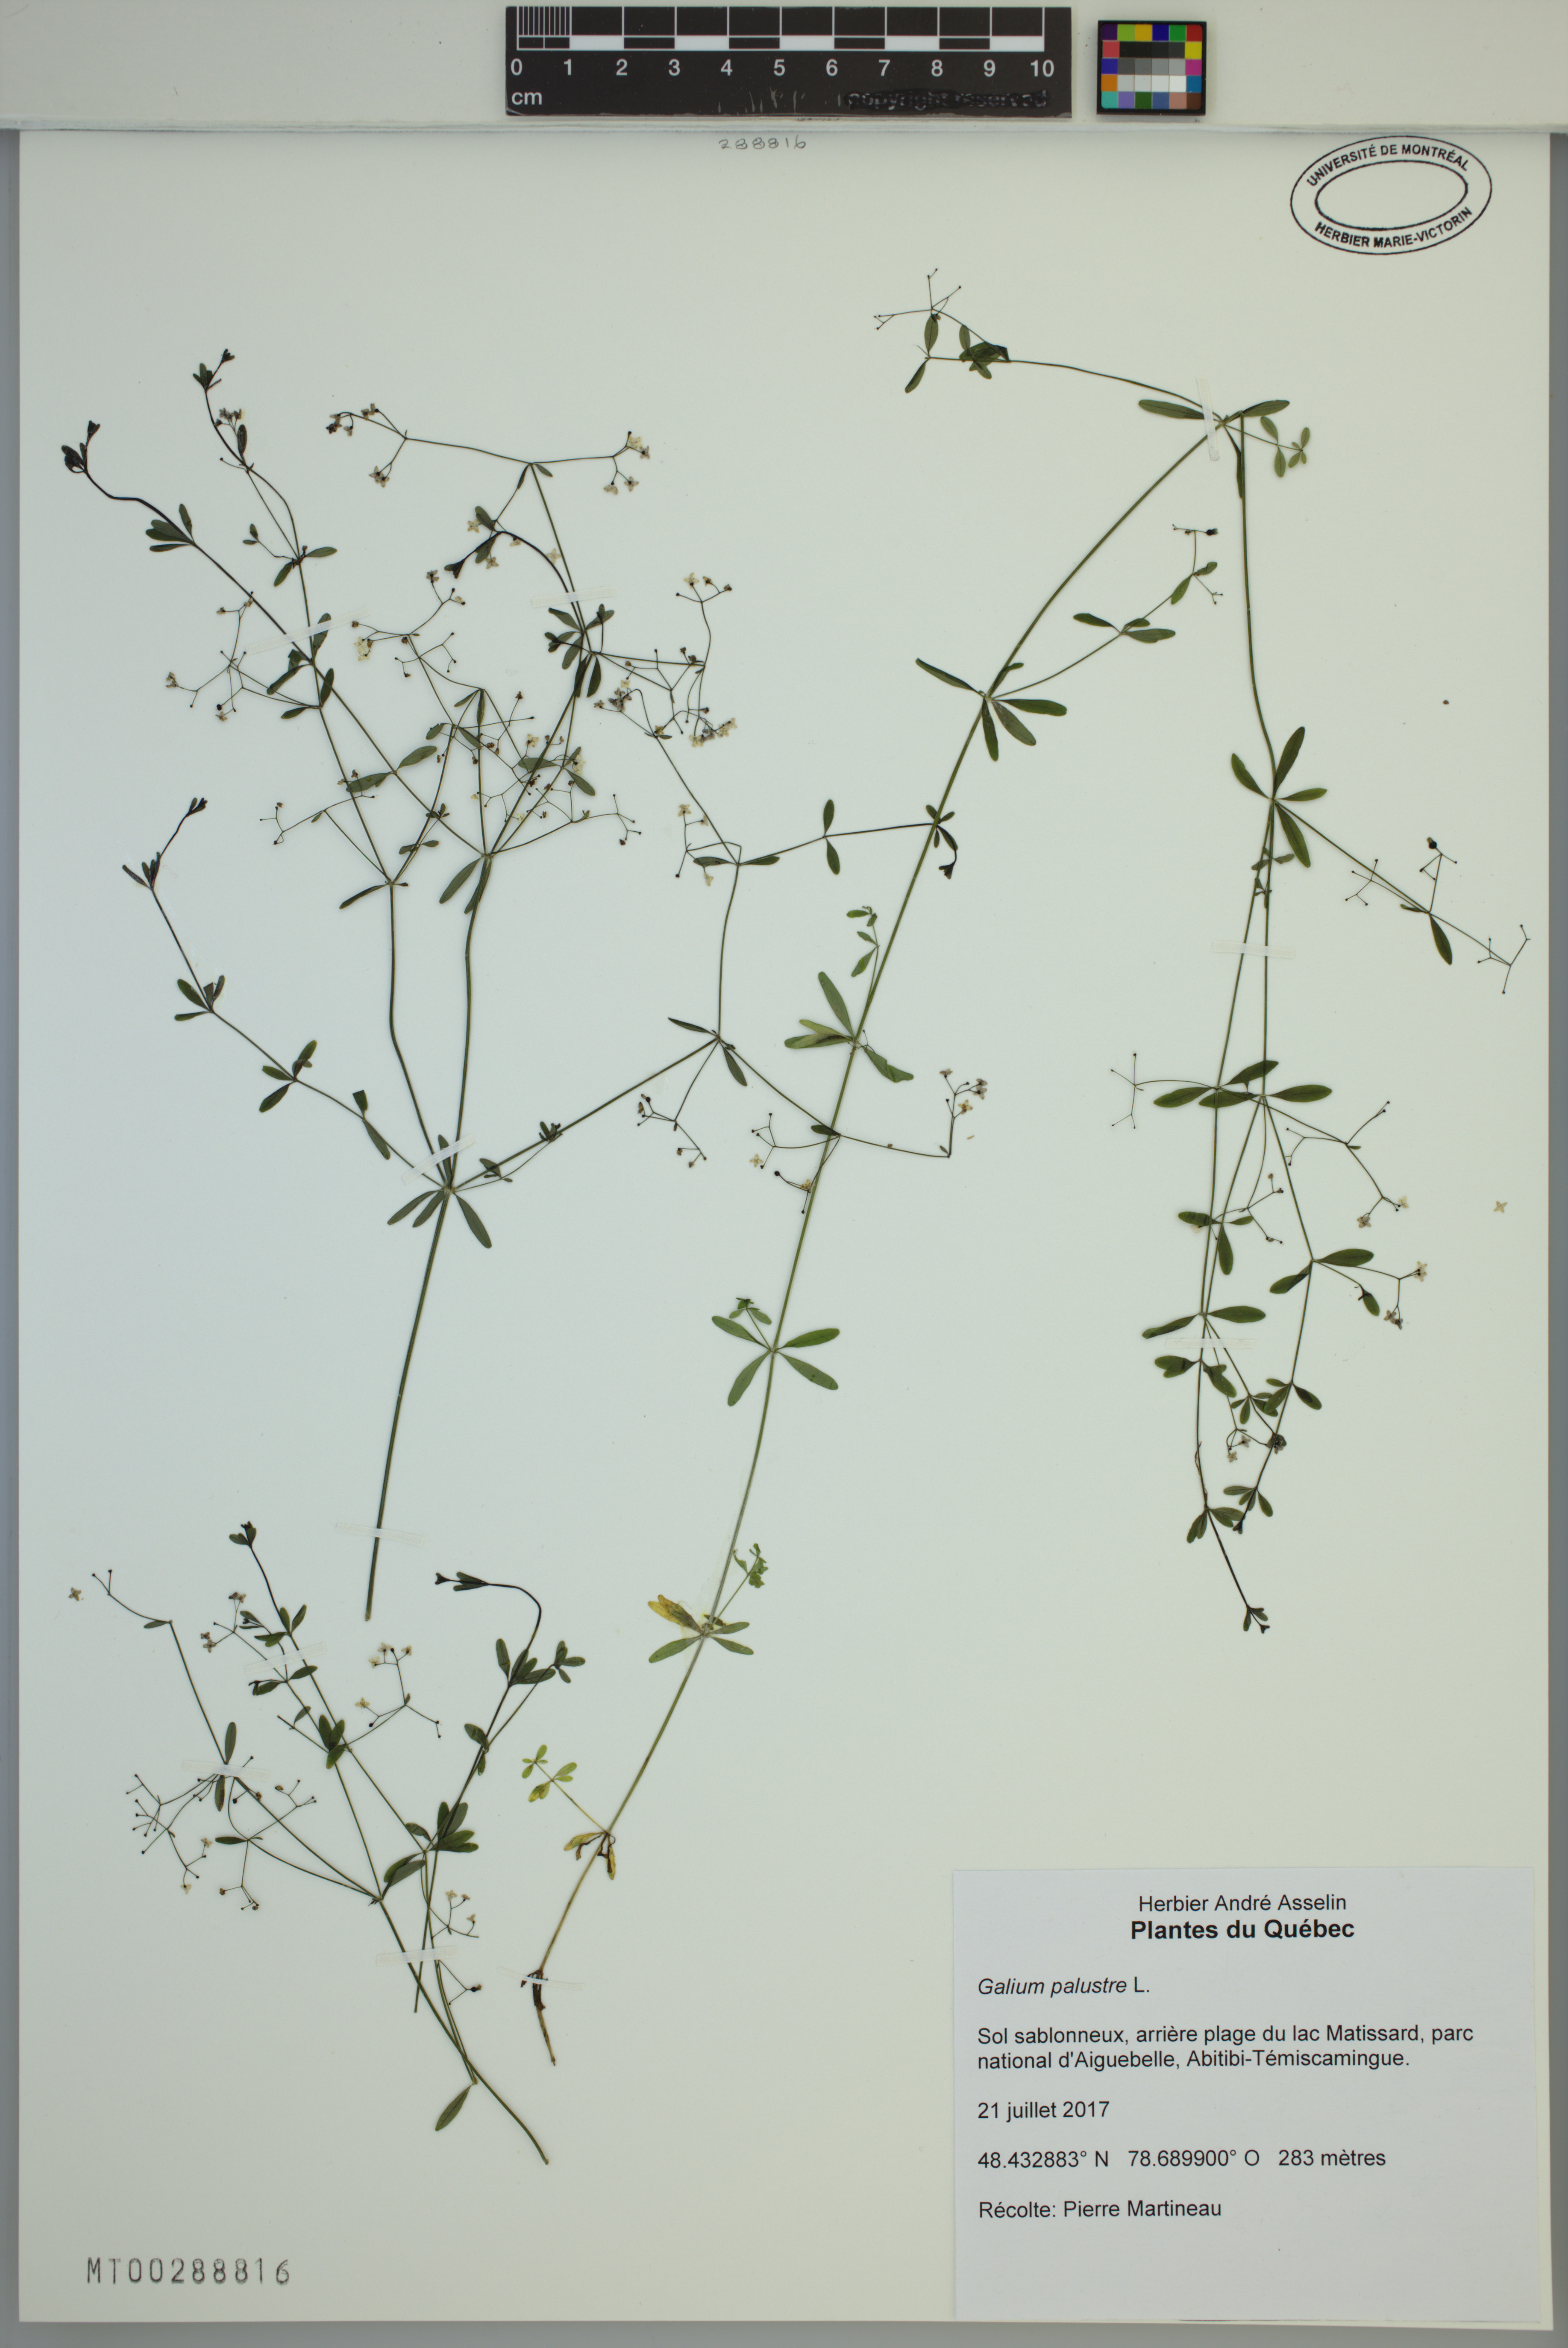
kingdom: Plantae
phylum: Tracheophyta
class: Magnoliopsida
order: Gentianales
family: Rubiaceae
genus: Galium
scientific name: Galium palustre
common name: Common marsh-bedstraw
